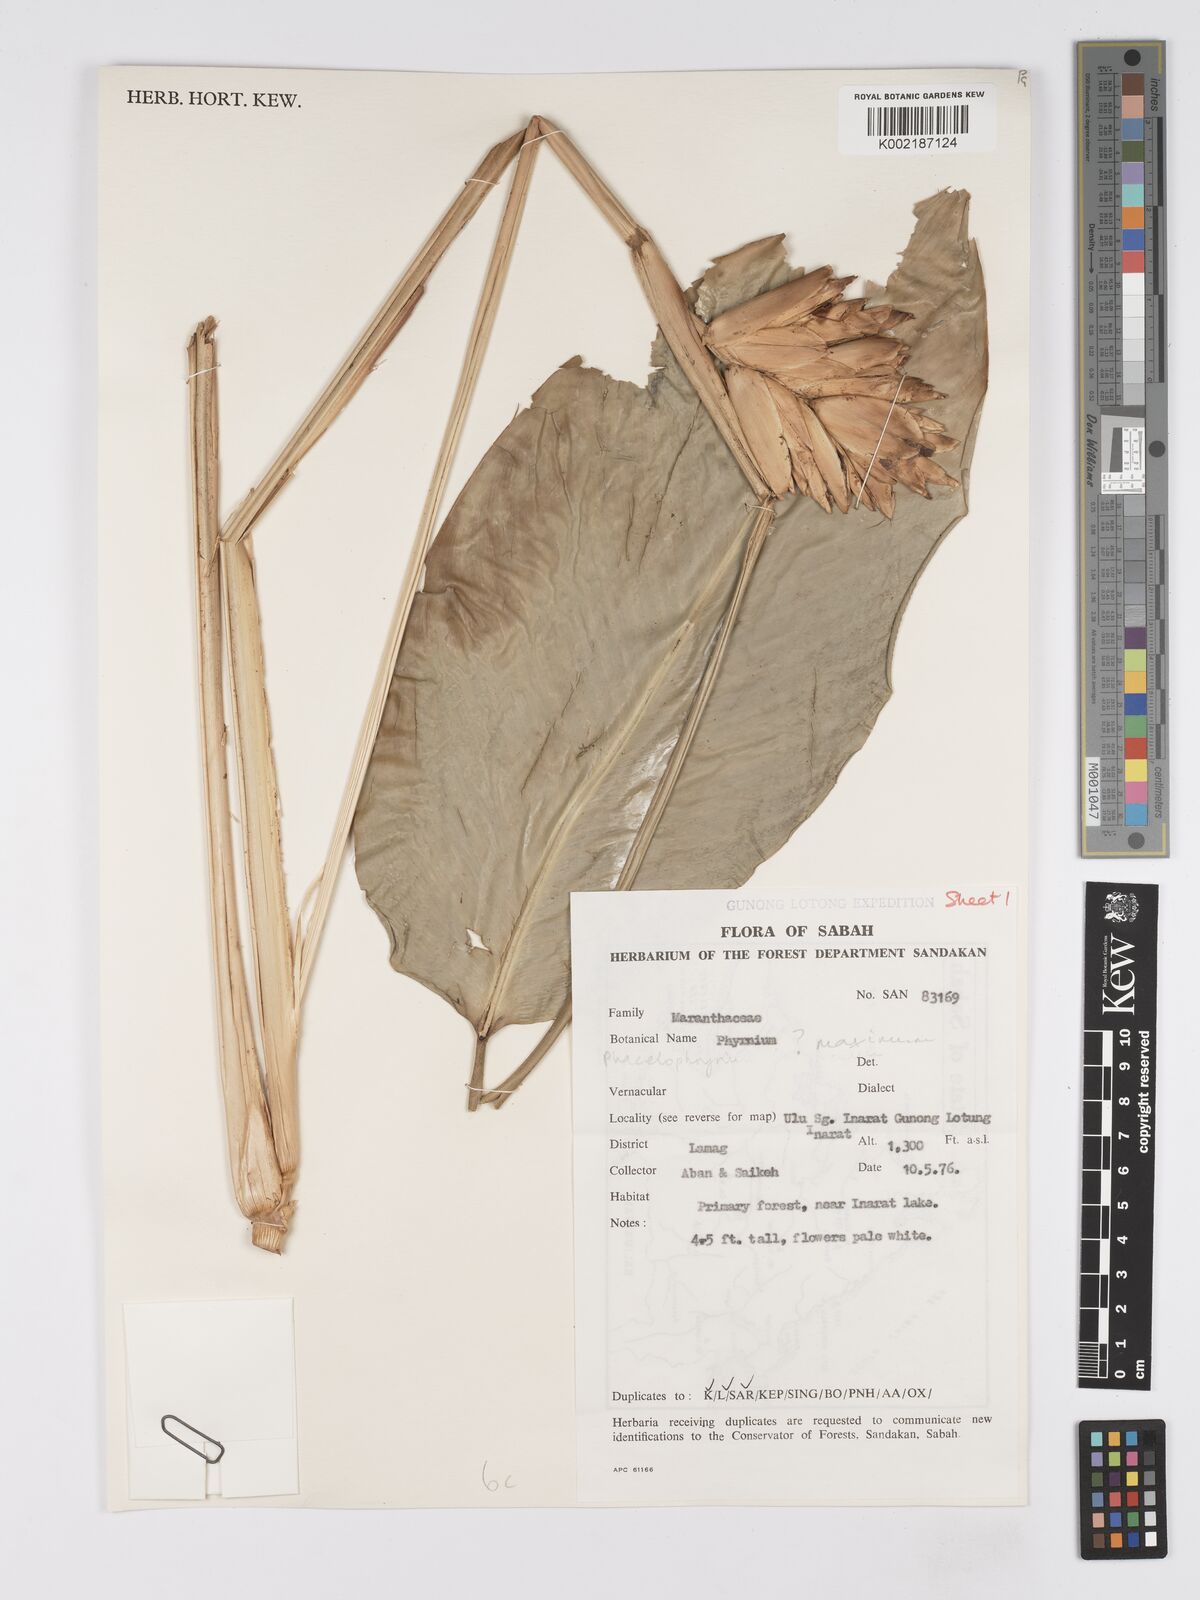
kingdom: Plantae
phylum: Tracheophyta
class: Liliopsida
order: Zingiberales
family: Marantaceae
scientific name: Marantaceae
